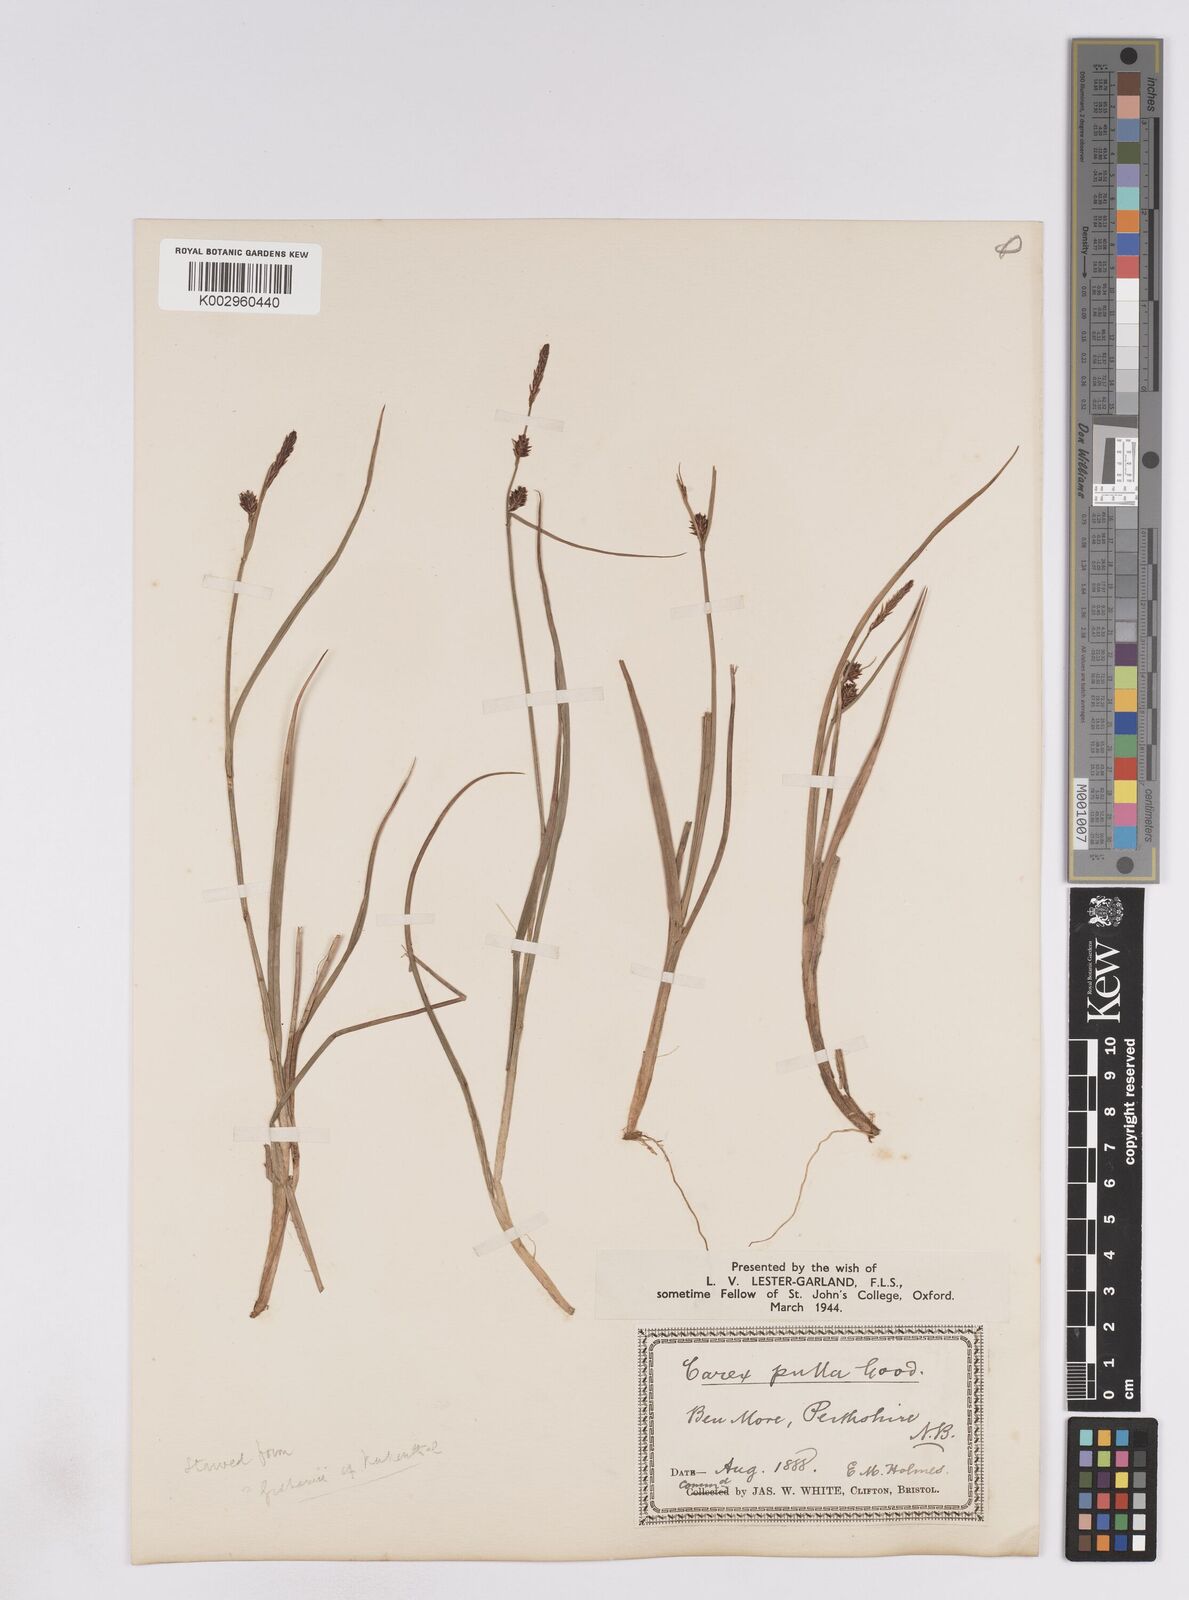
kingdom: Plantae
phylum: Tracheophyta
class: Liliopsida
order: Poales
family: Cyperaceae
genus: Carex
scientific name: Carex saxatilis
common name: Russet sedge
